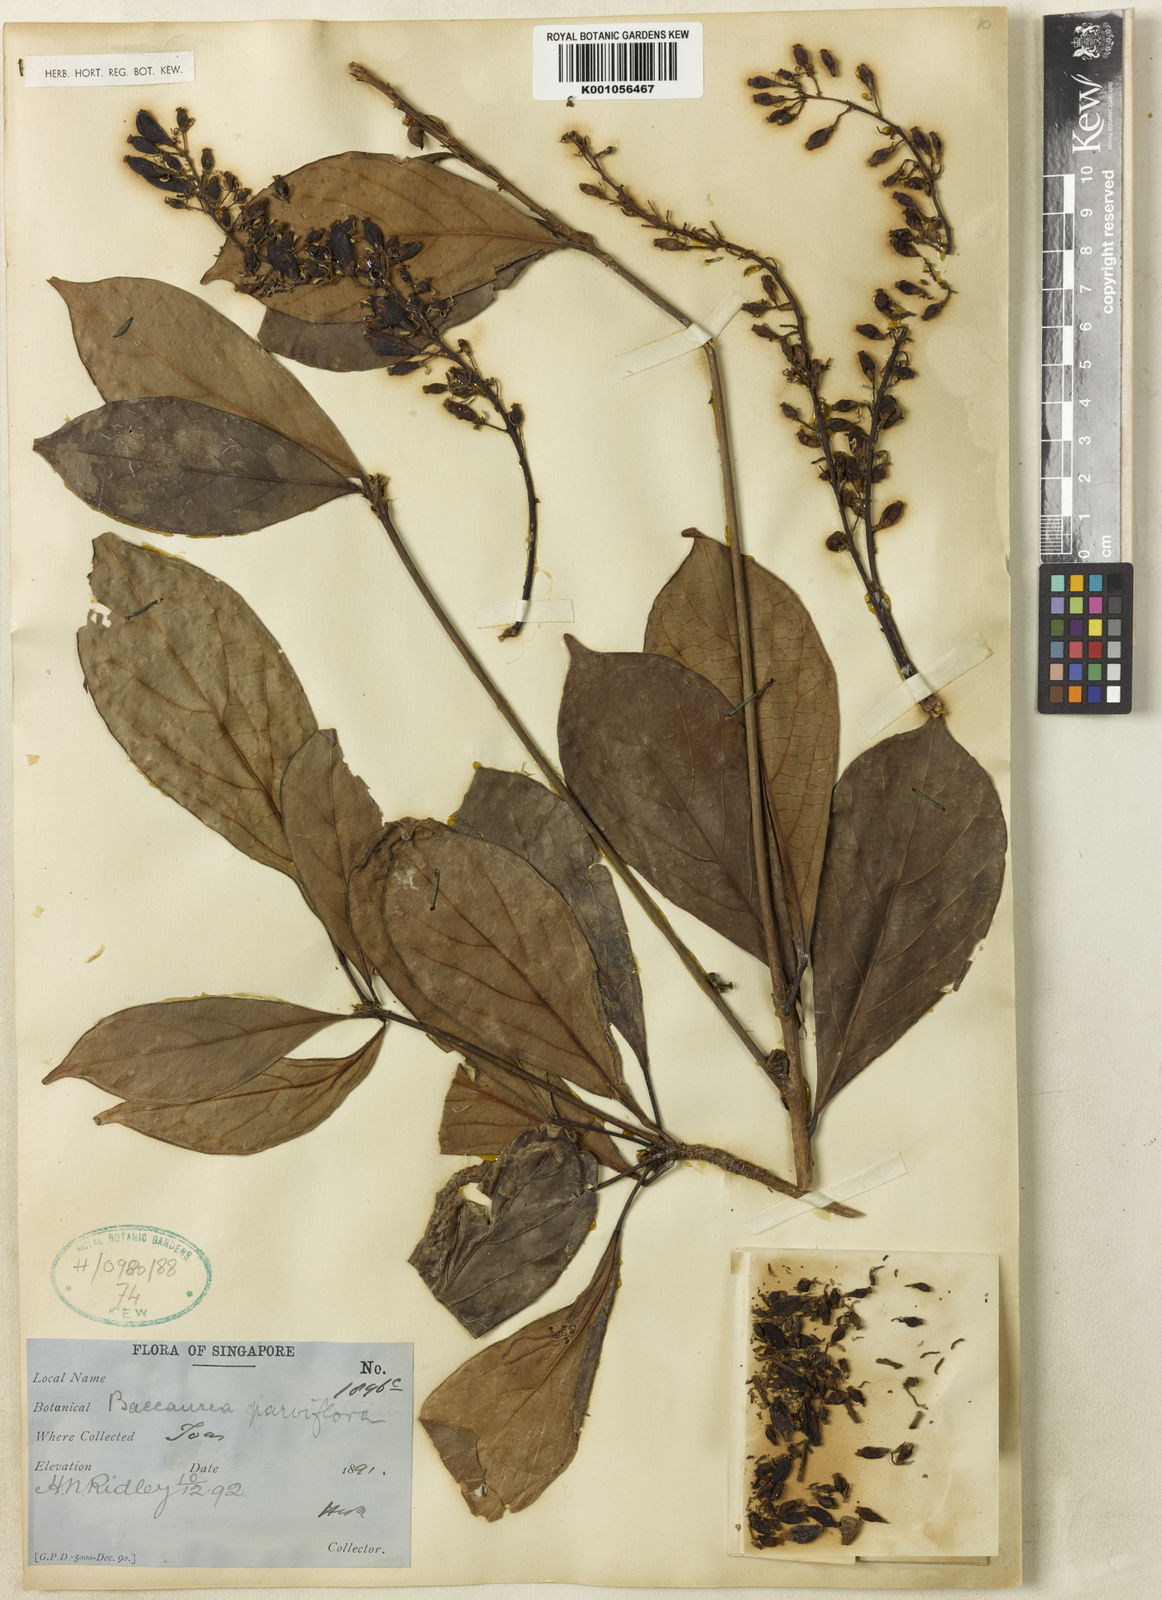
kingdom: Plantae
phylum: Tracheophyta
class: Magnoliopsida
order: Malpighiales
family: Phyllanthaceae
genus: Baccaurea
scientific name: Baccaurea
